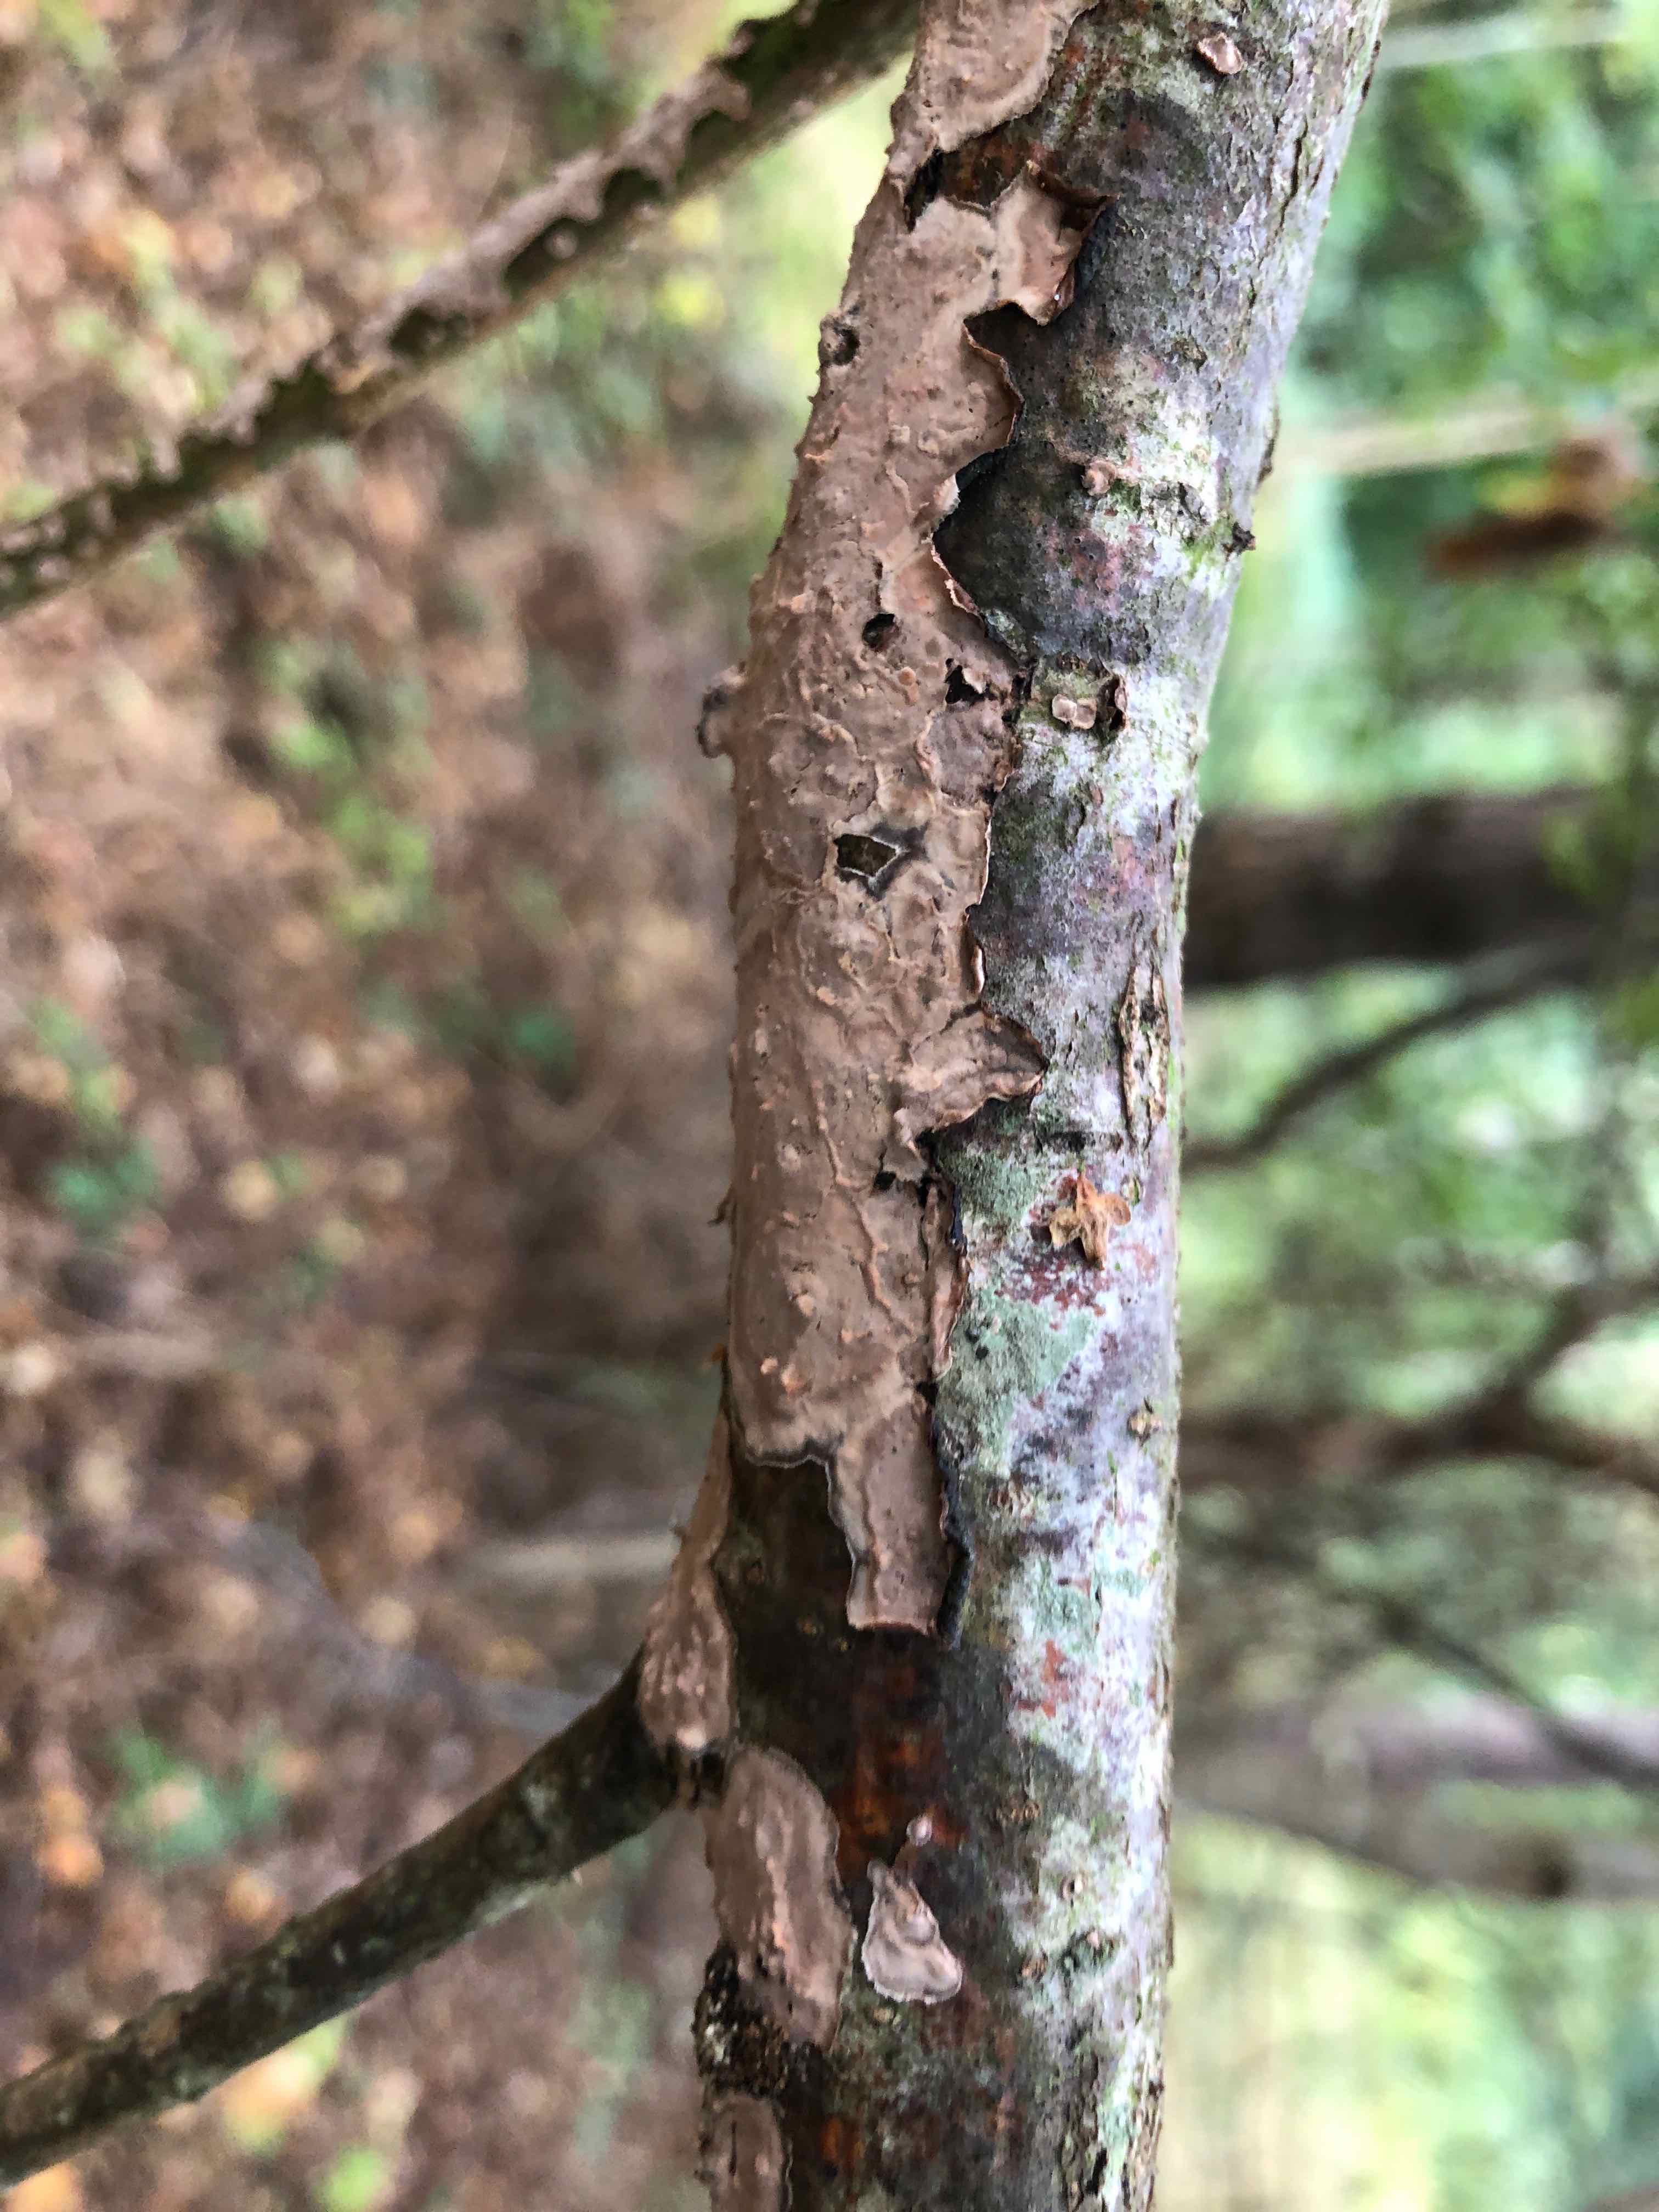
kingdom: Fungi
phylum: Basidiomycota
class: Agaricomycetes
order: Russulales
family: Peniophoraceae
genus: Peniophora
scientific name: Peniophora quercina
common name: ege-voksskind
